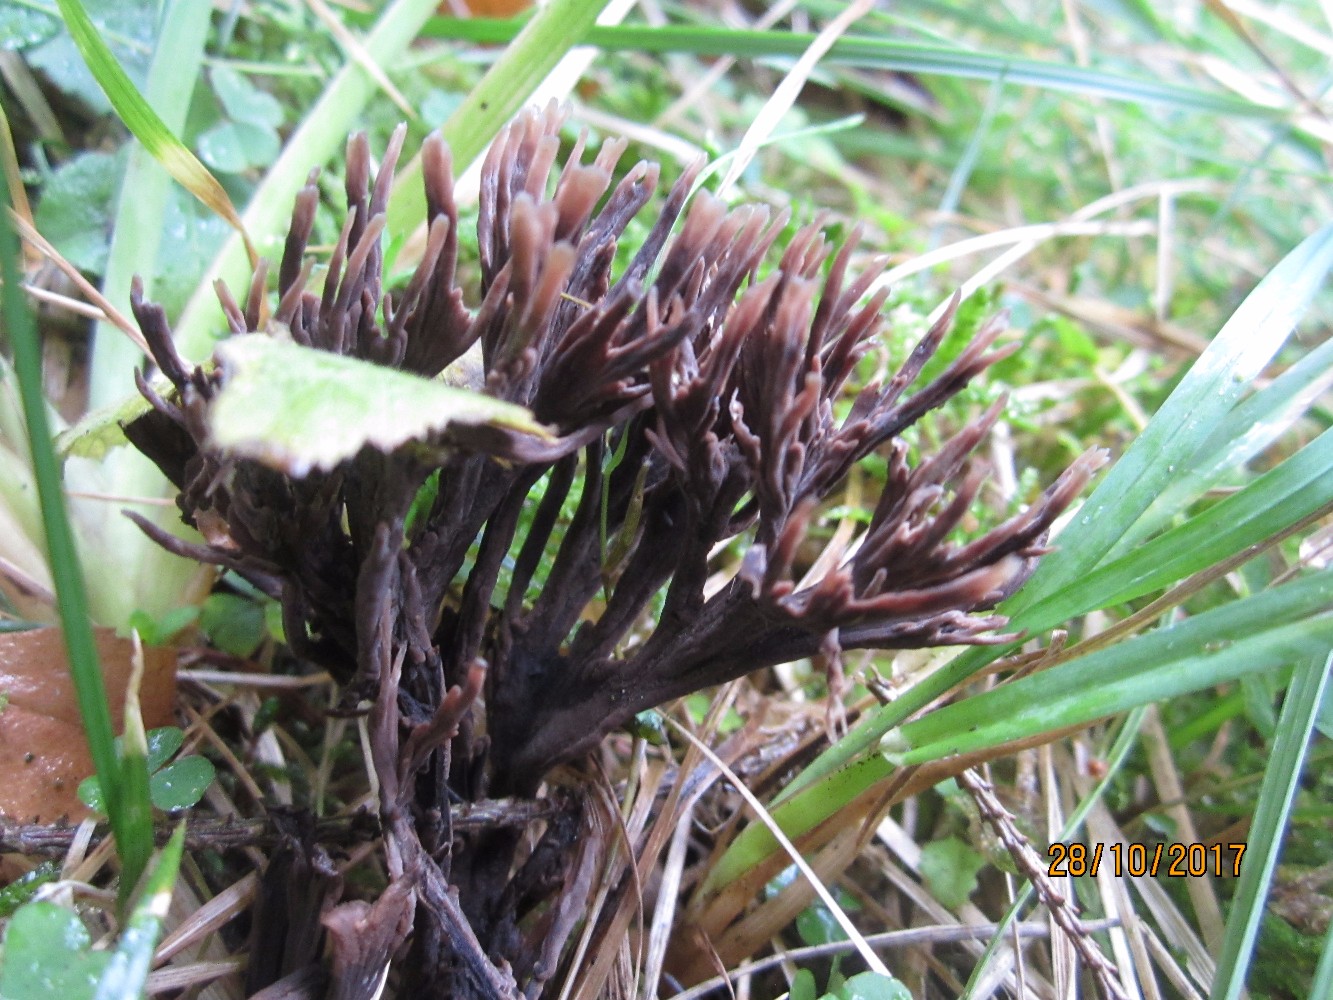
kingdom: Fungi
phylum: Basidiomycota
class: Agaricomycetes
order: Thelephorales
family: Thelephoraceae
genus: Thelephora
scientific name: Thelephora palmata
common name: grenet frynsesvamp
